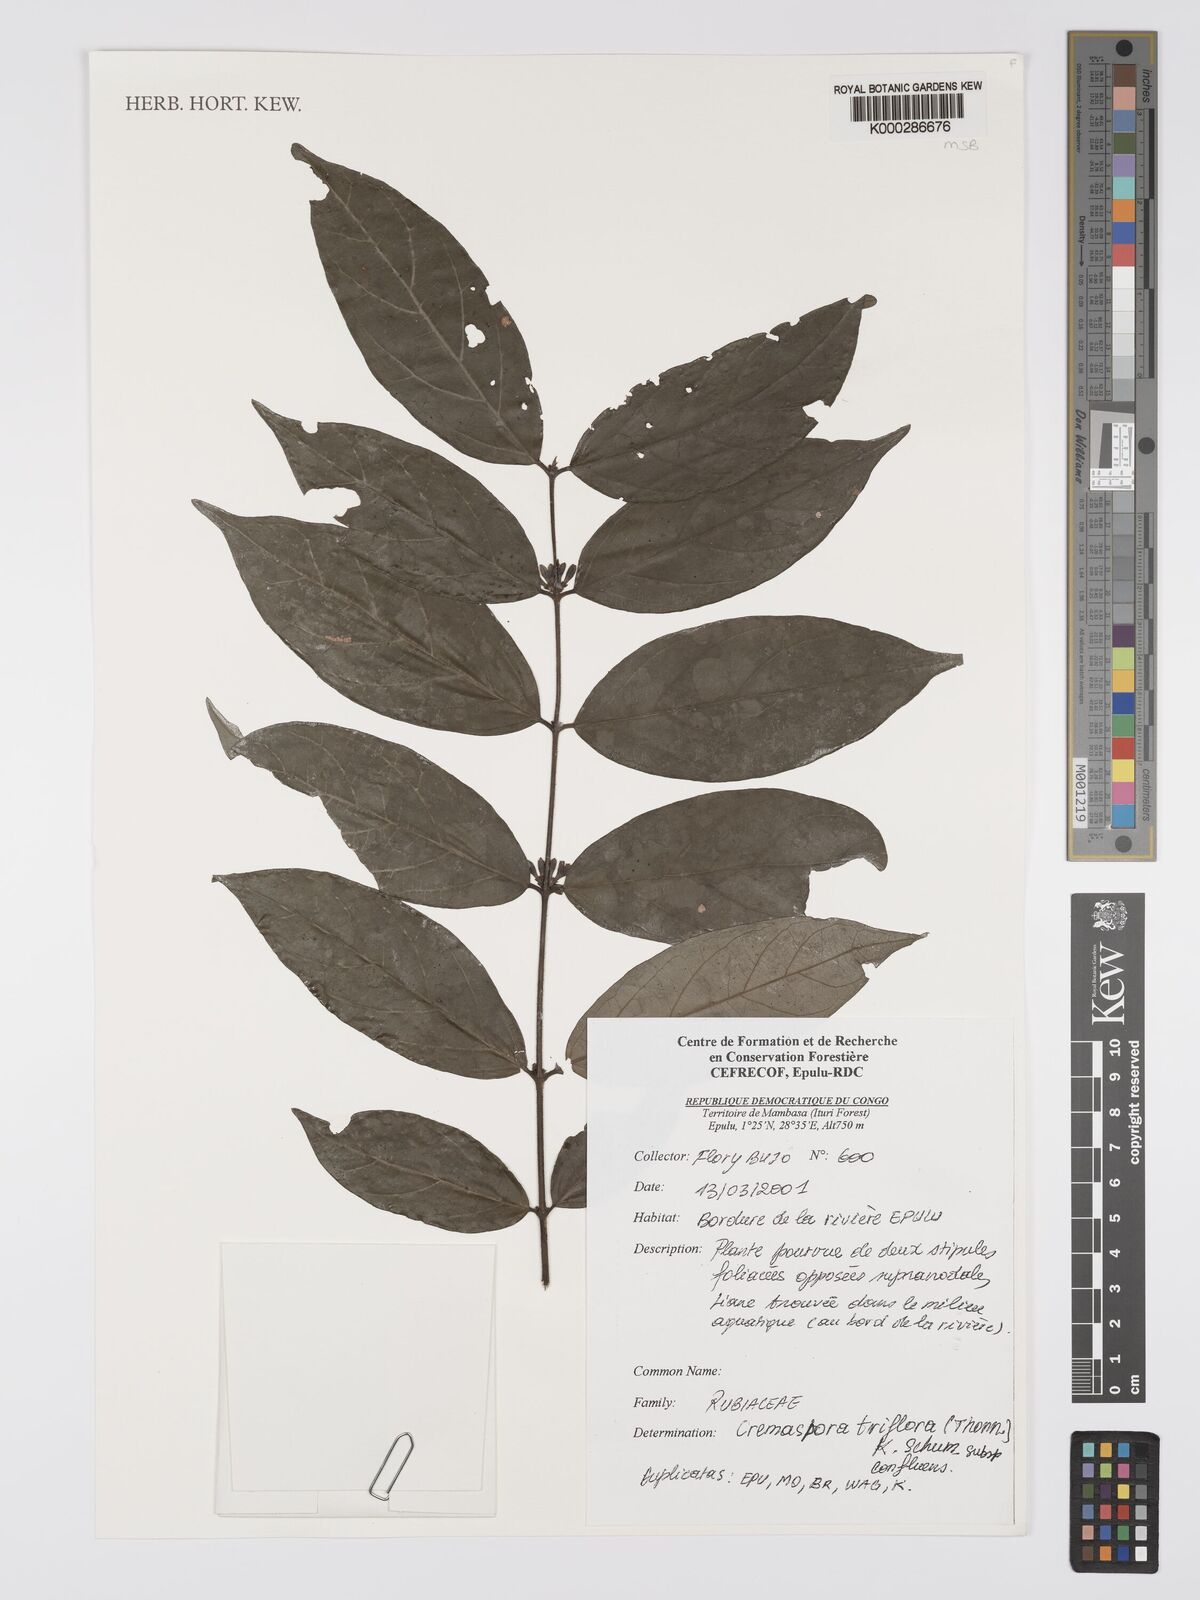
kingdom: Plantae
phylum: Tracheophyta
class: Magnoliopsida
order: Gentianales
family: Rubiaceae
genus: Cremaspora
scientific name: Cremaspora triflora
